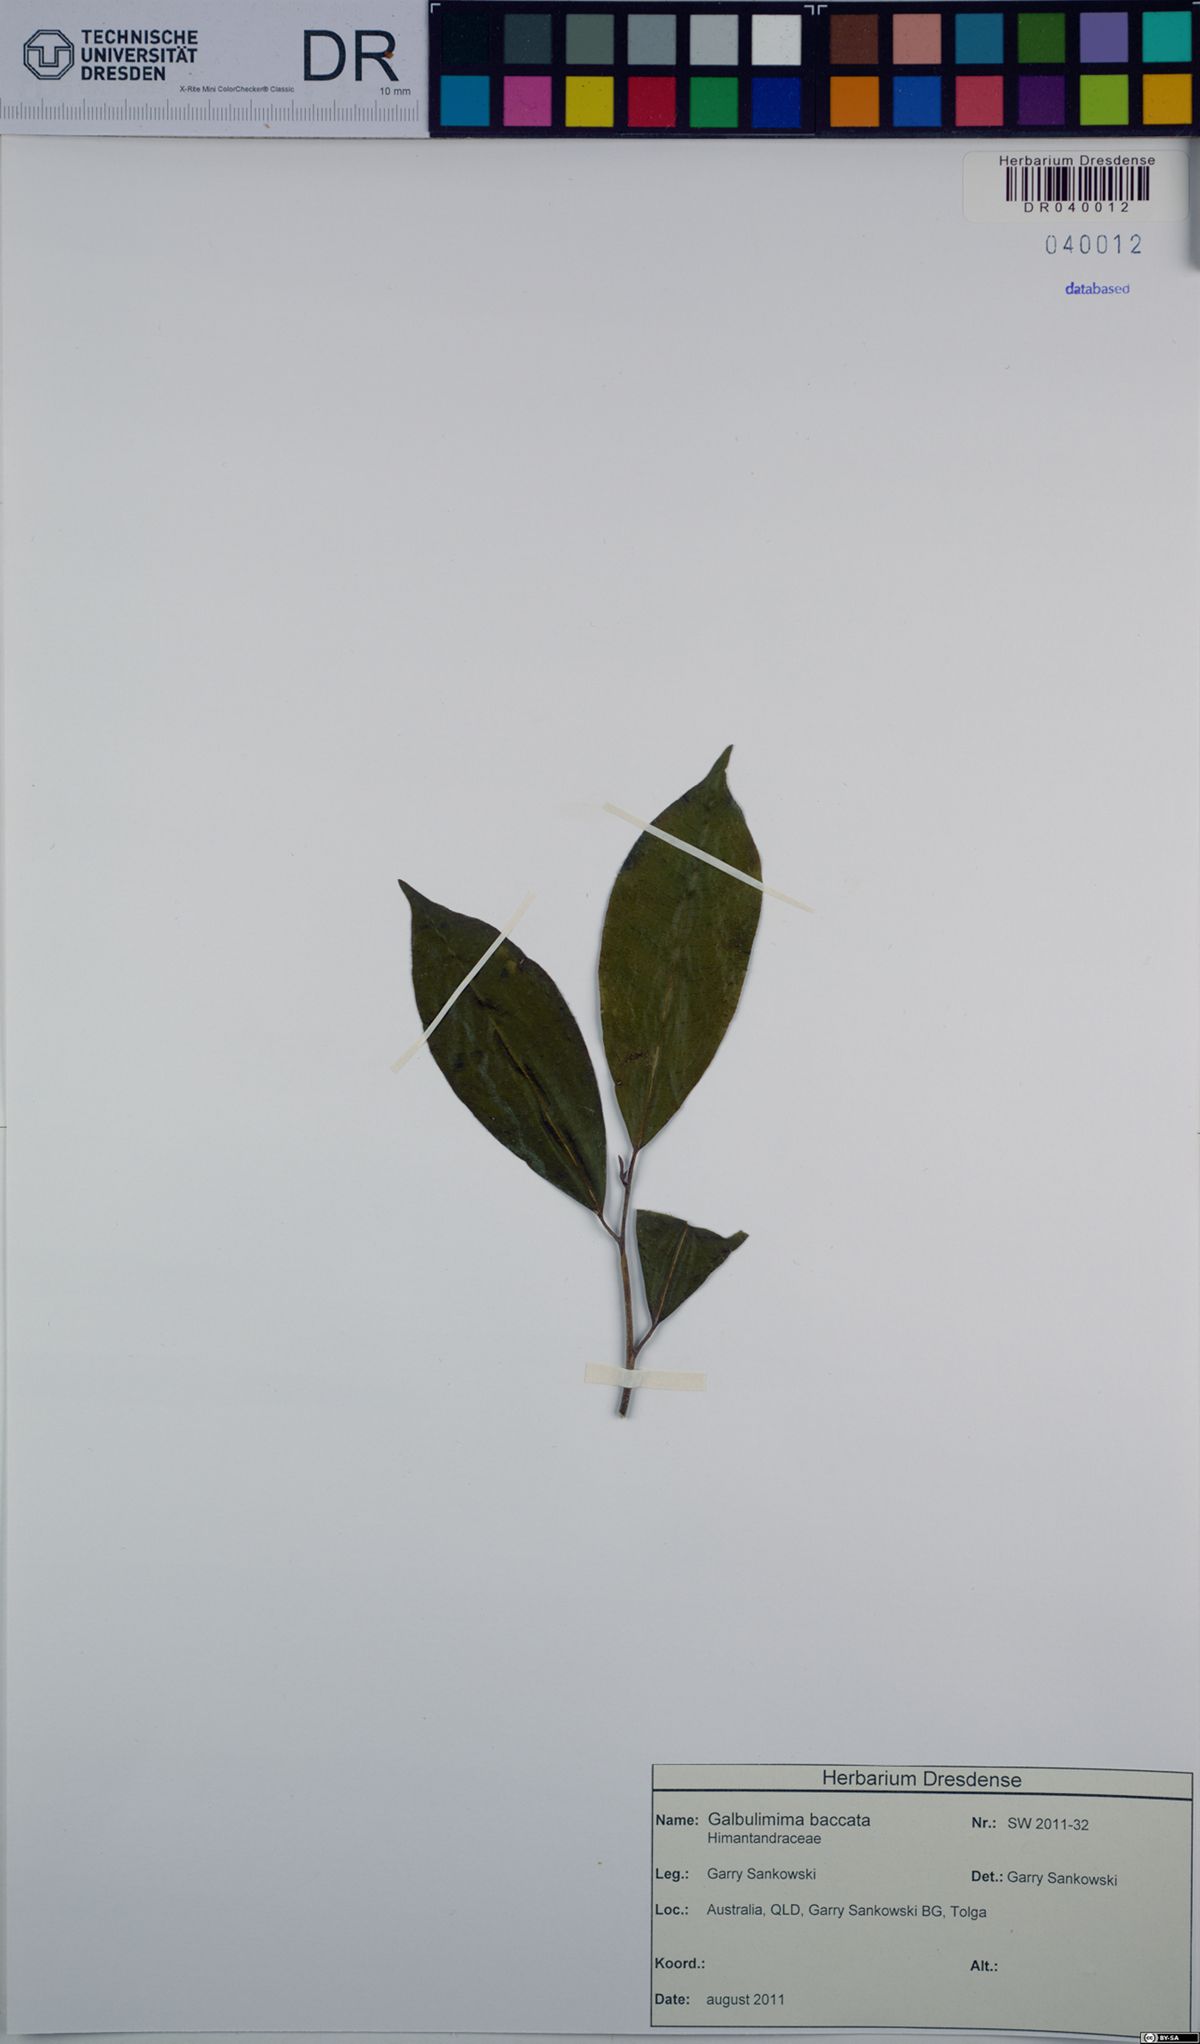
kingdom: Plantae
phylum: Tracheophyta
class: Magnoliopsida
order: Magnoliales
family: Himantandraceae
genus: Galbulimima
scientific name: Galbulimima belgraveana
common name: Northern pigeonberry-ash
